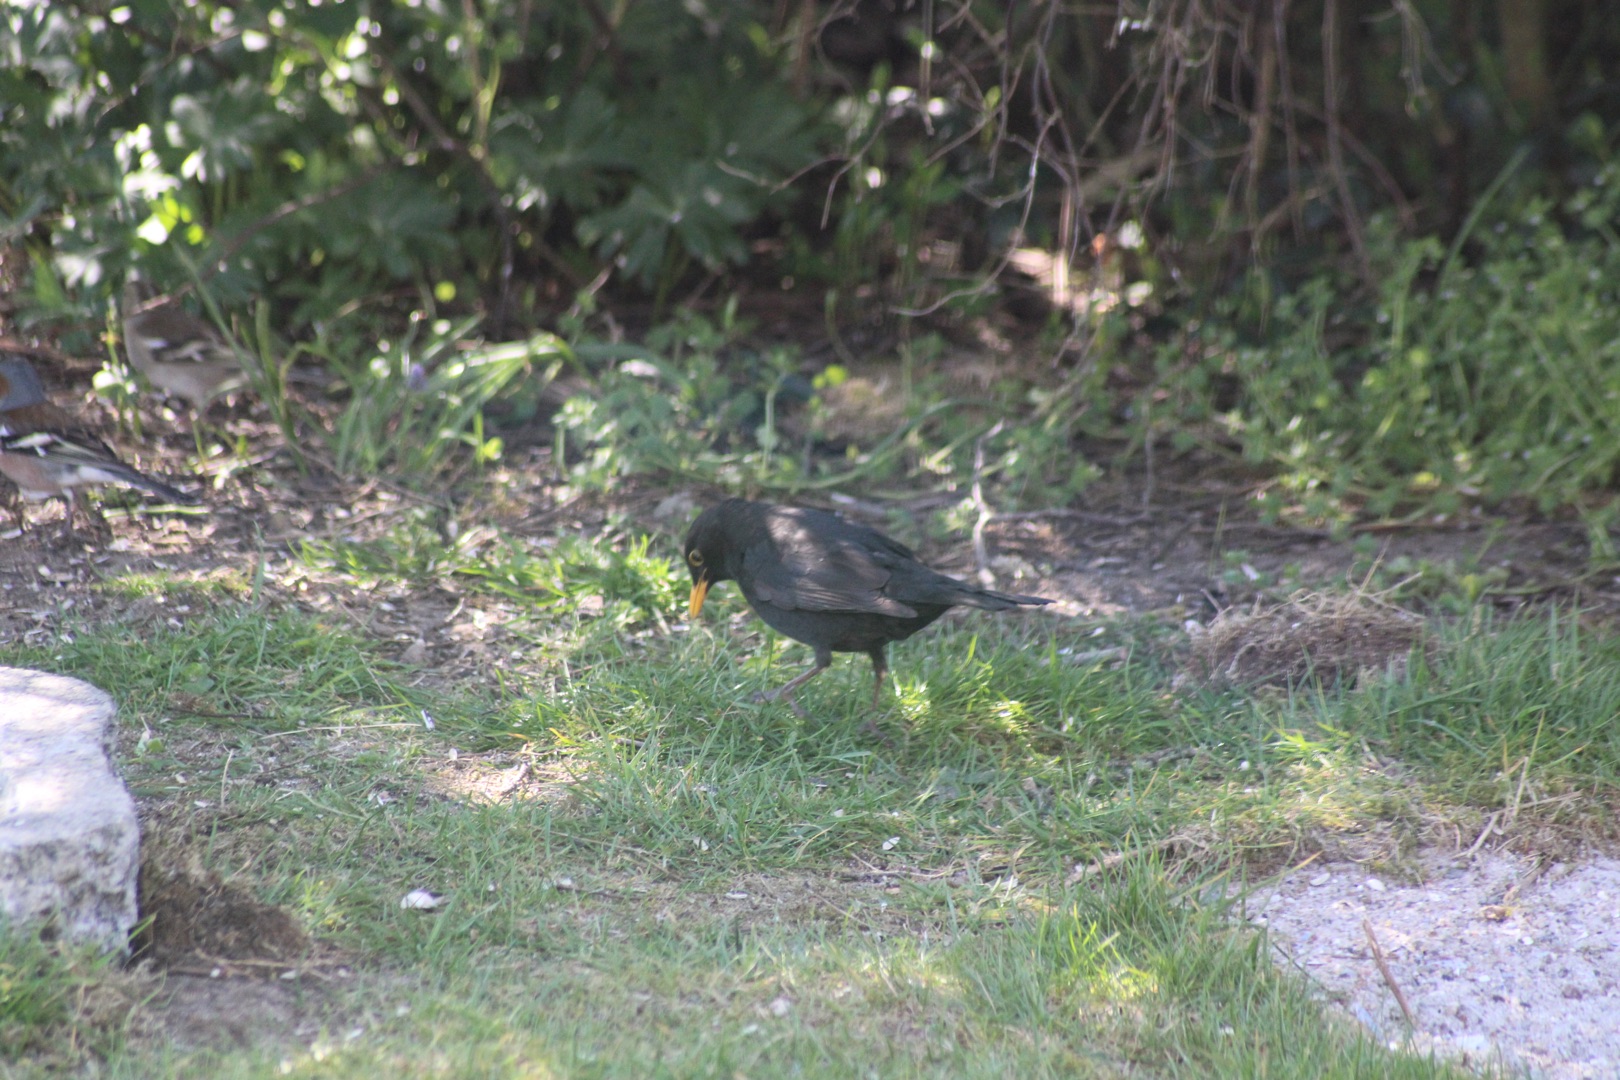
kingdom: Animalia
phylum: Chordata
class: Aves
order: Passeriformes
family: Turdidae
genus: Turdus
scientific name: Turdus merula
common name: Solsort
